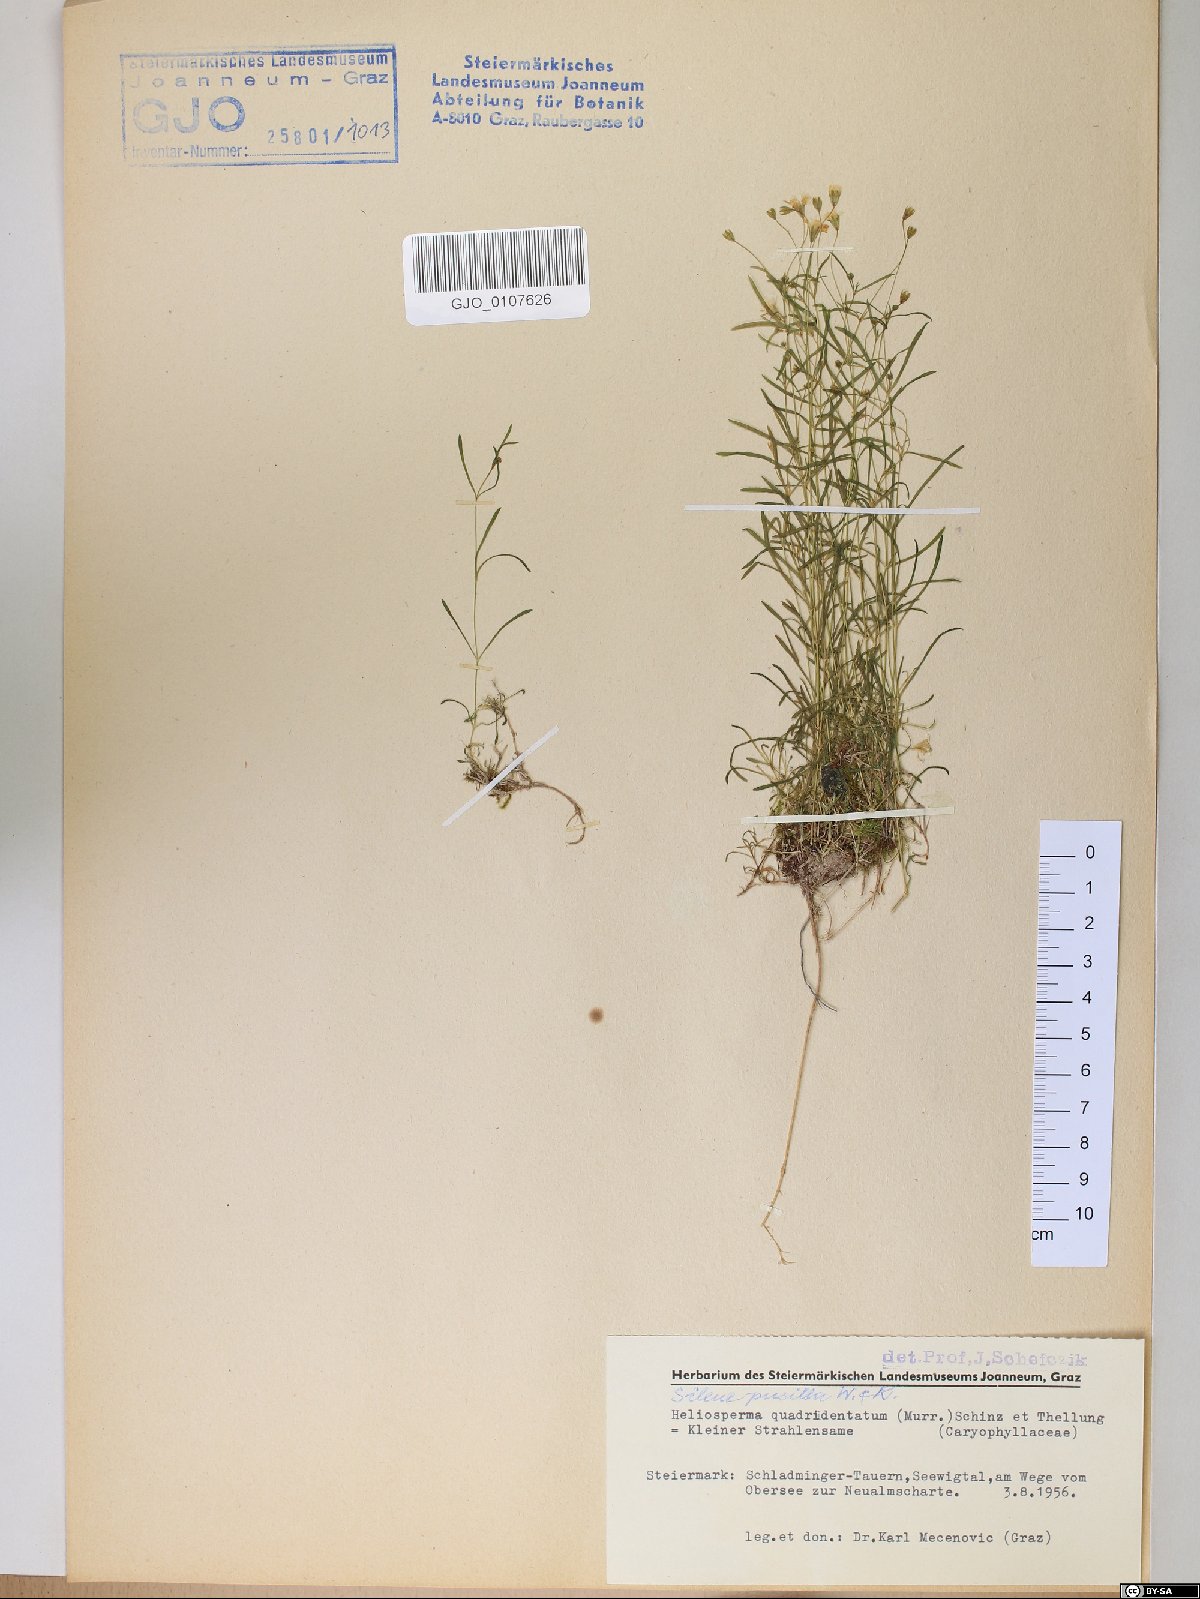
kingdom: Plantae
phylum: Tracheophyta
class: Magnoliopsida
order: Caryophyllales
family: Caryophyllaceae
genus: Heliosperma
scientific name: Heliosperma alpestre
